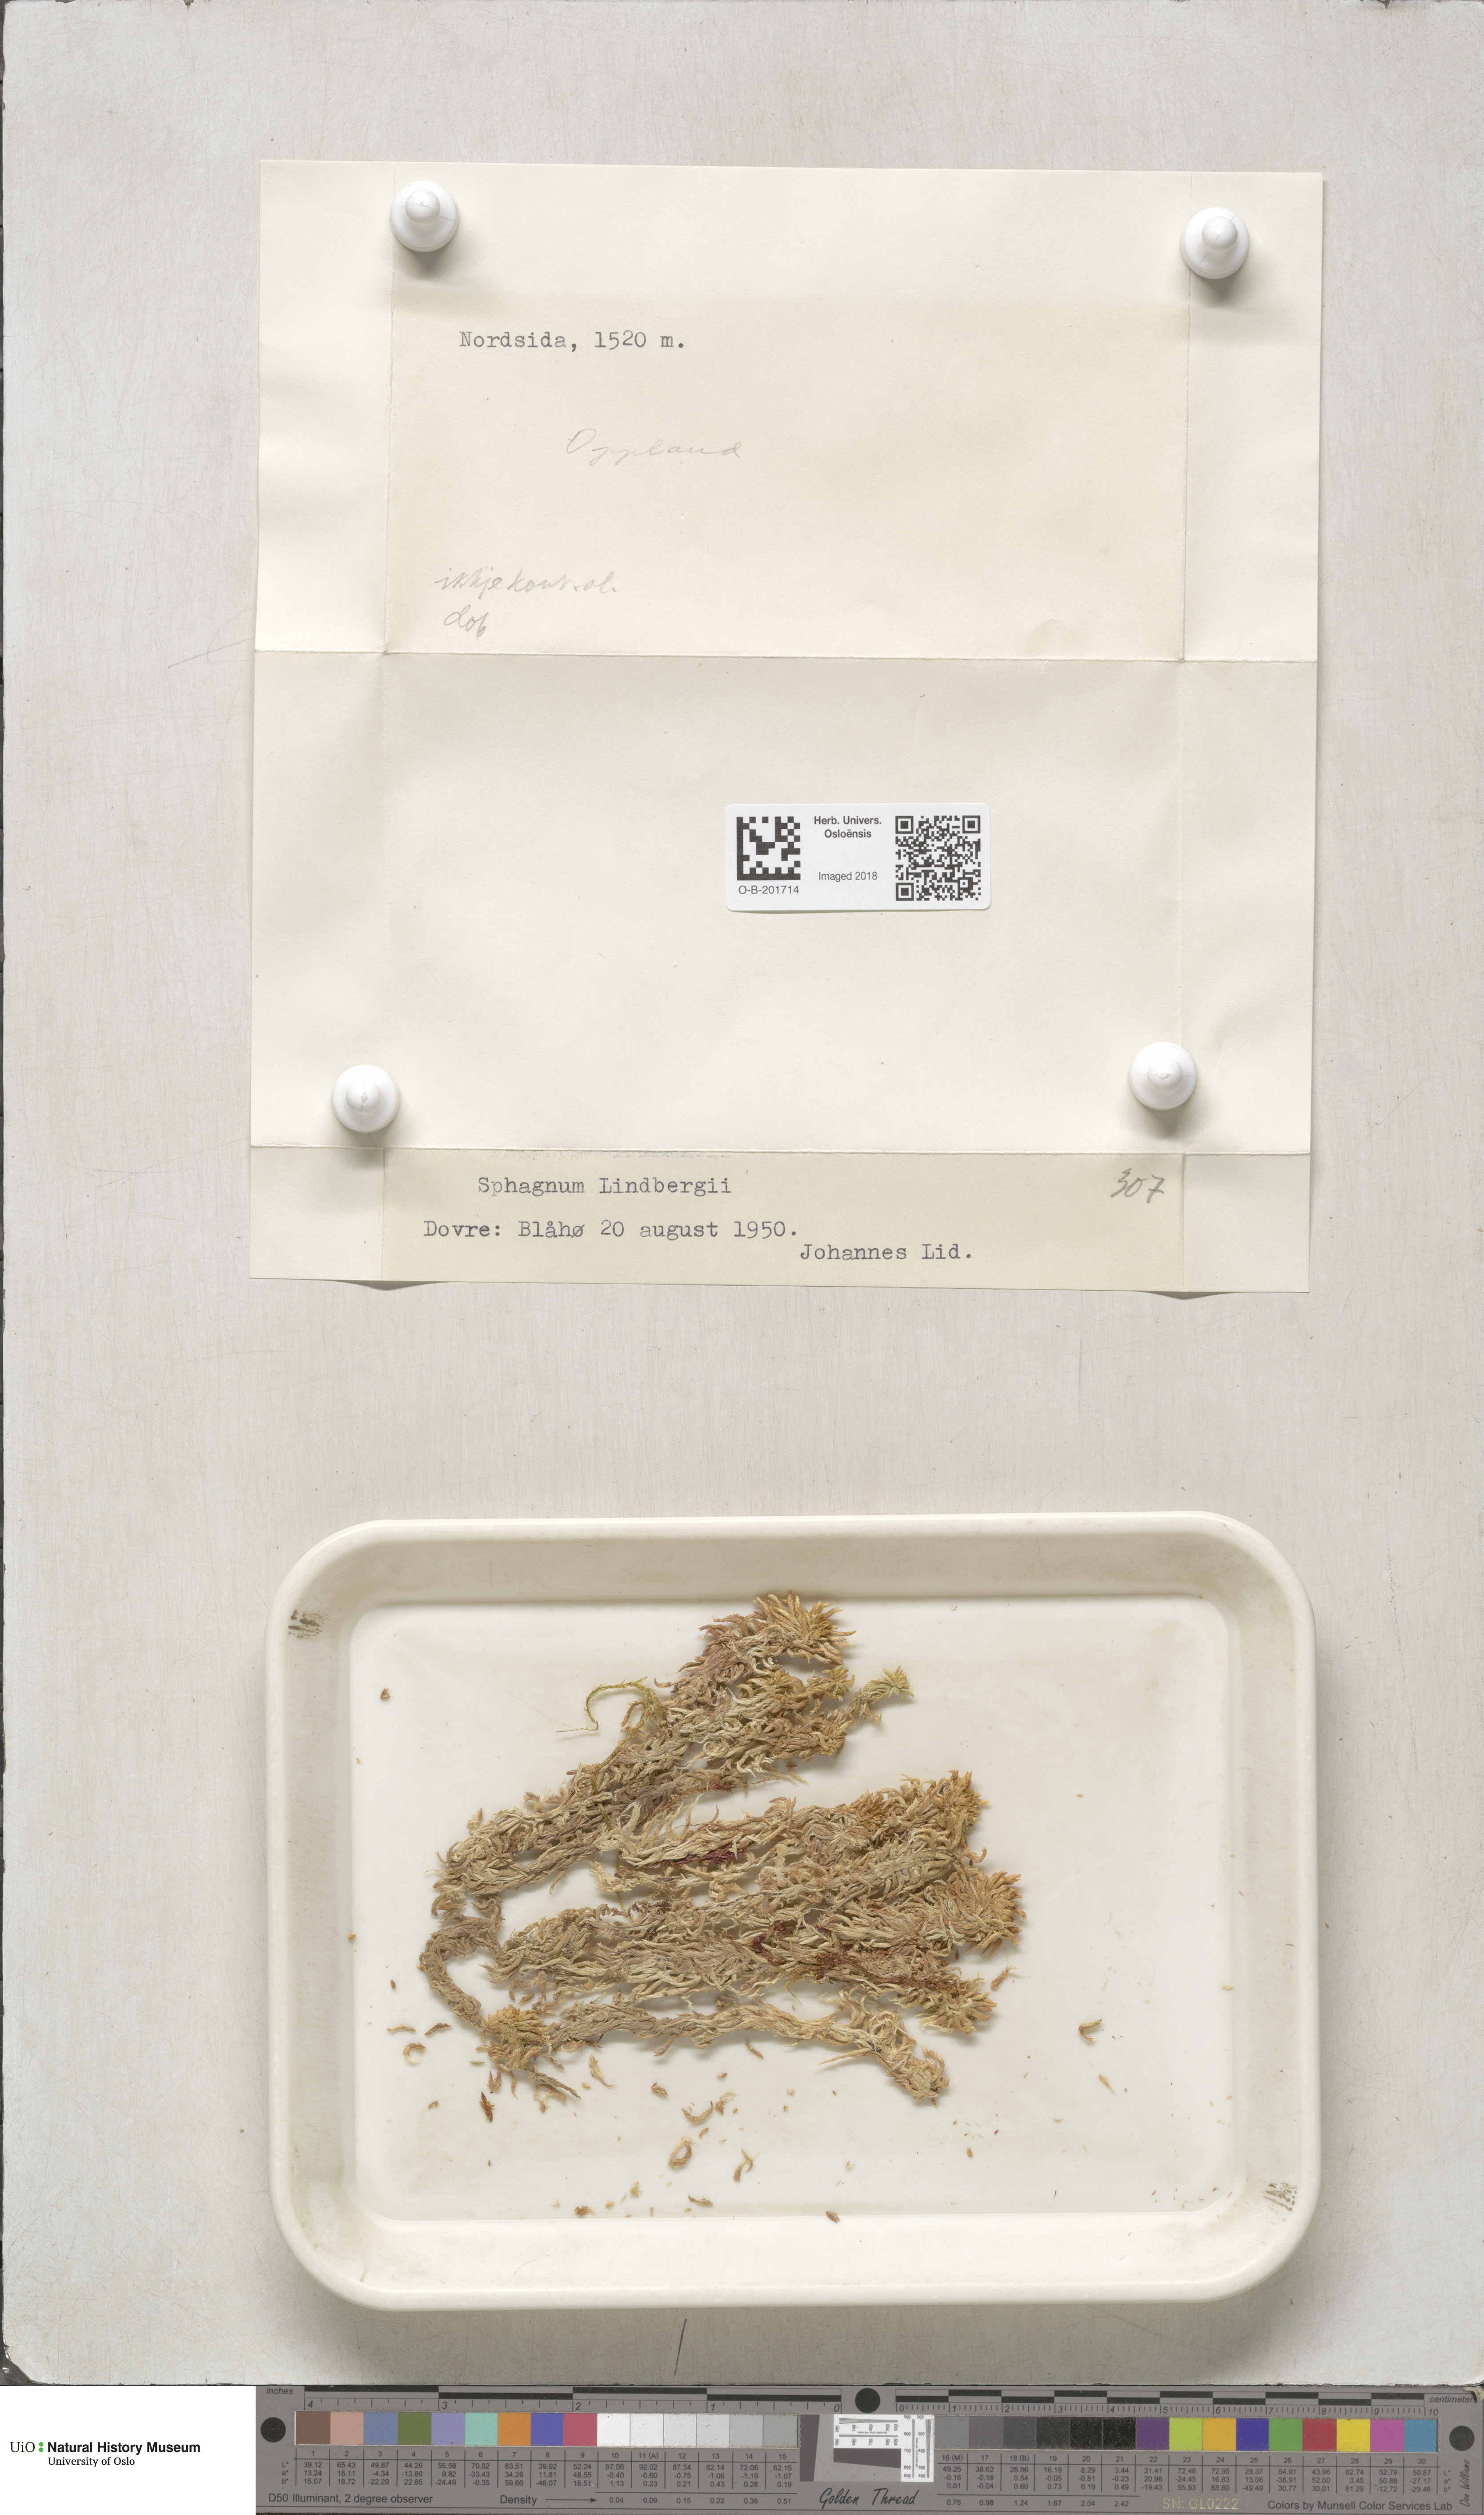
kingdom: Plantae
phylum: Bryophyta
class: Sphagnopsida
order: Sphagnales
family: Sphagnaceae
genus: Sphagnum
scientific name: Sphagnum lindbergii
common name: Lindberg's peat moss
